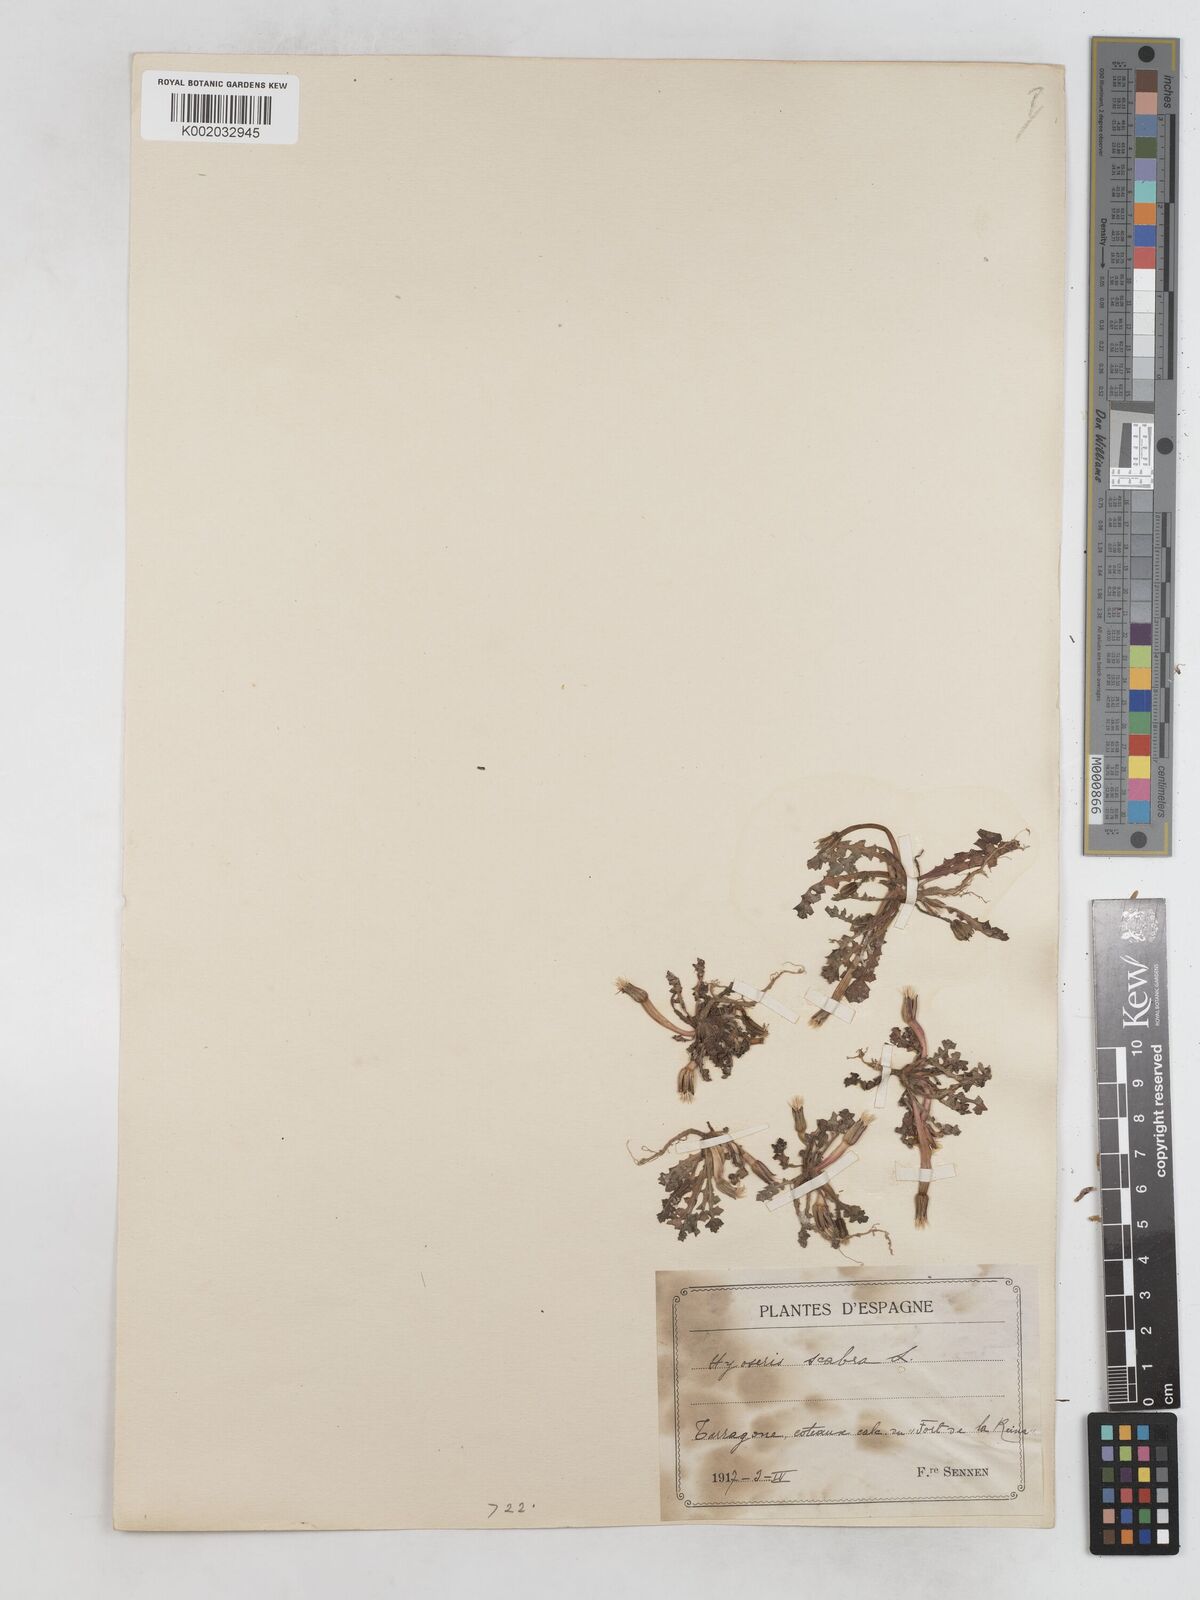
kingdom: Plantae
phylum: Tracheophyta
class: Magnoliopsida
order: Asterales
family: Asteraceae
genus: Hyoseris
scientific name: Hyoseris scabra
